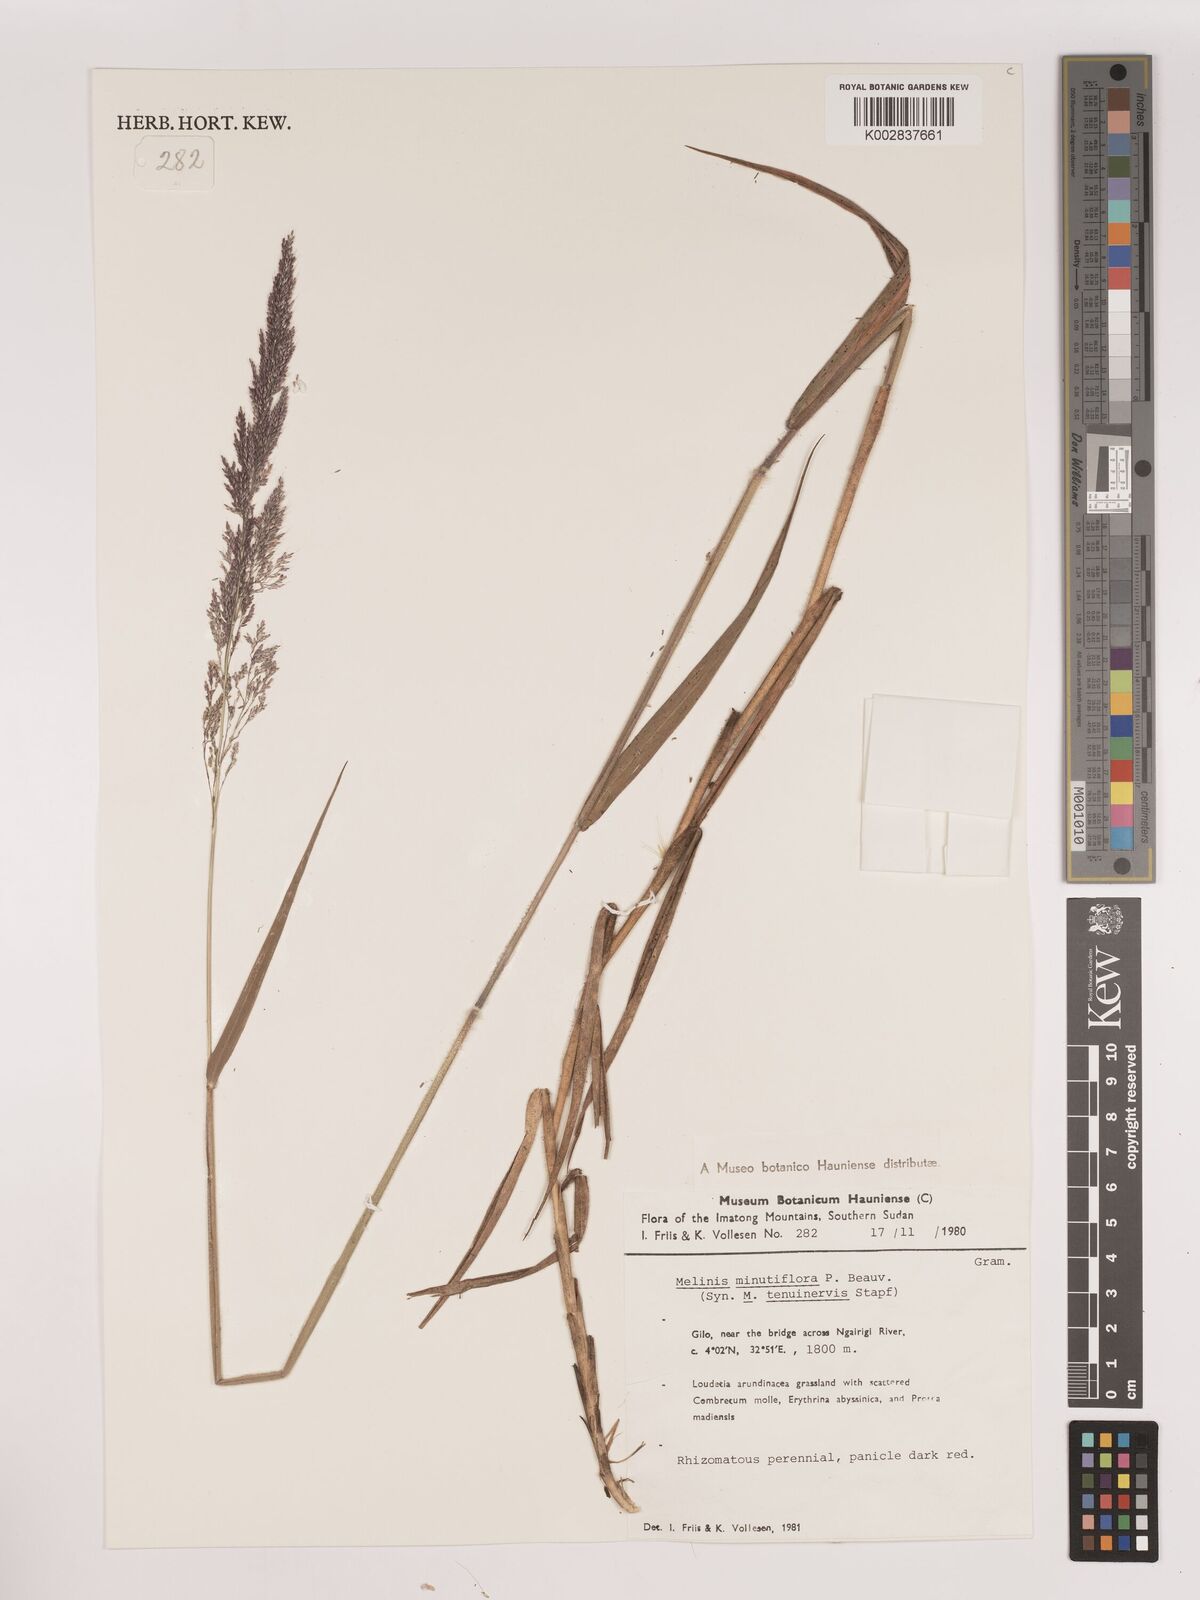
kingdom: Plantae
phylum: Tracheophyta
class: Liliopsida
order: Poales
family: Poaceae
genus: Melinis
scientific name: Melinis minutiflora
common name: Molassesgrass
